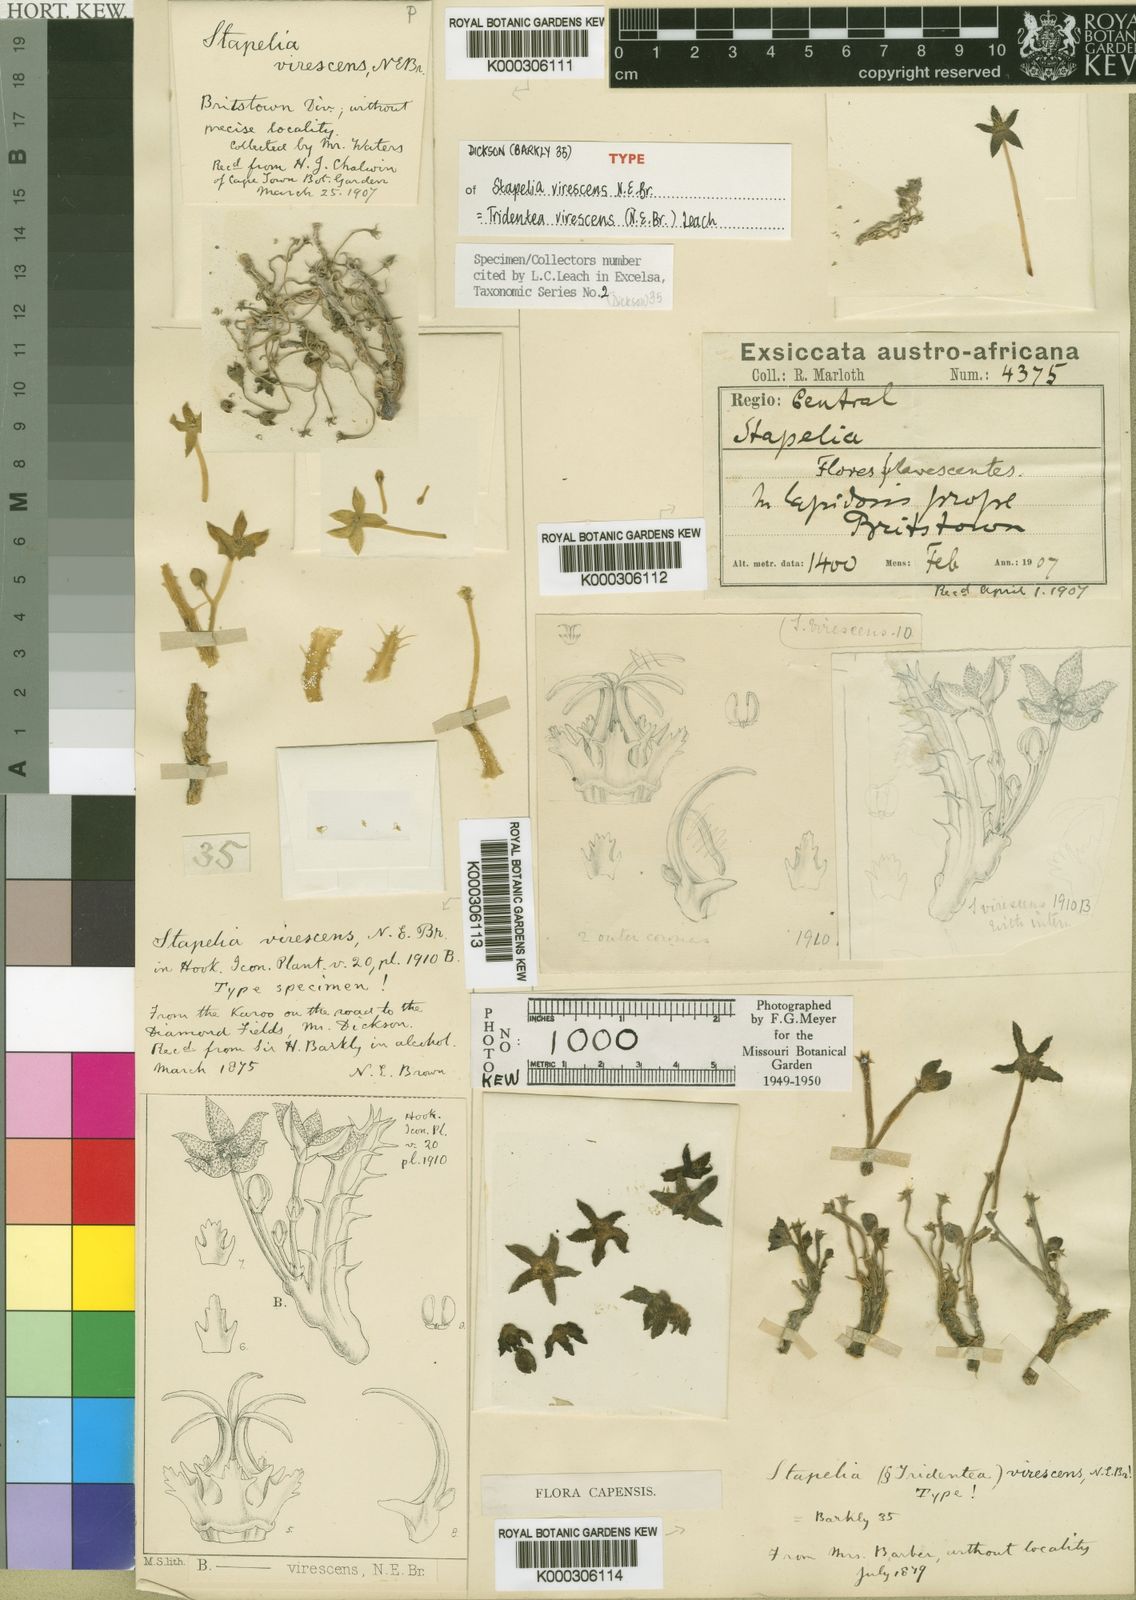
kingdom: Plantae
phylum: Tracheophyta
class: Magnoliopsida
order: Gentianales
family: Apocynaceae
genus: Ceropegia
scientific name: Ceropegia virescens
